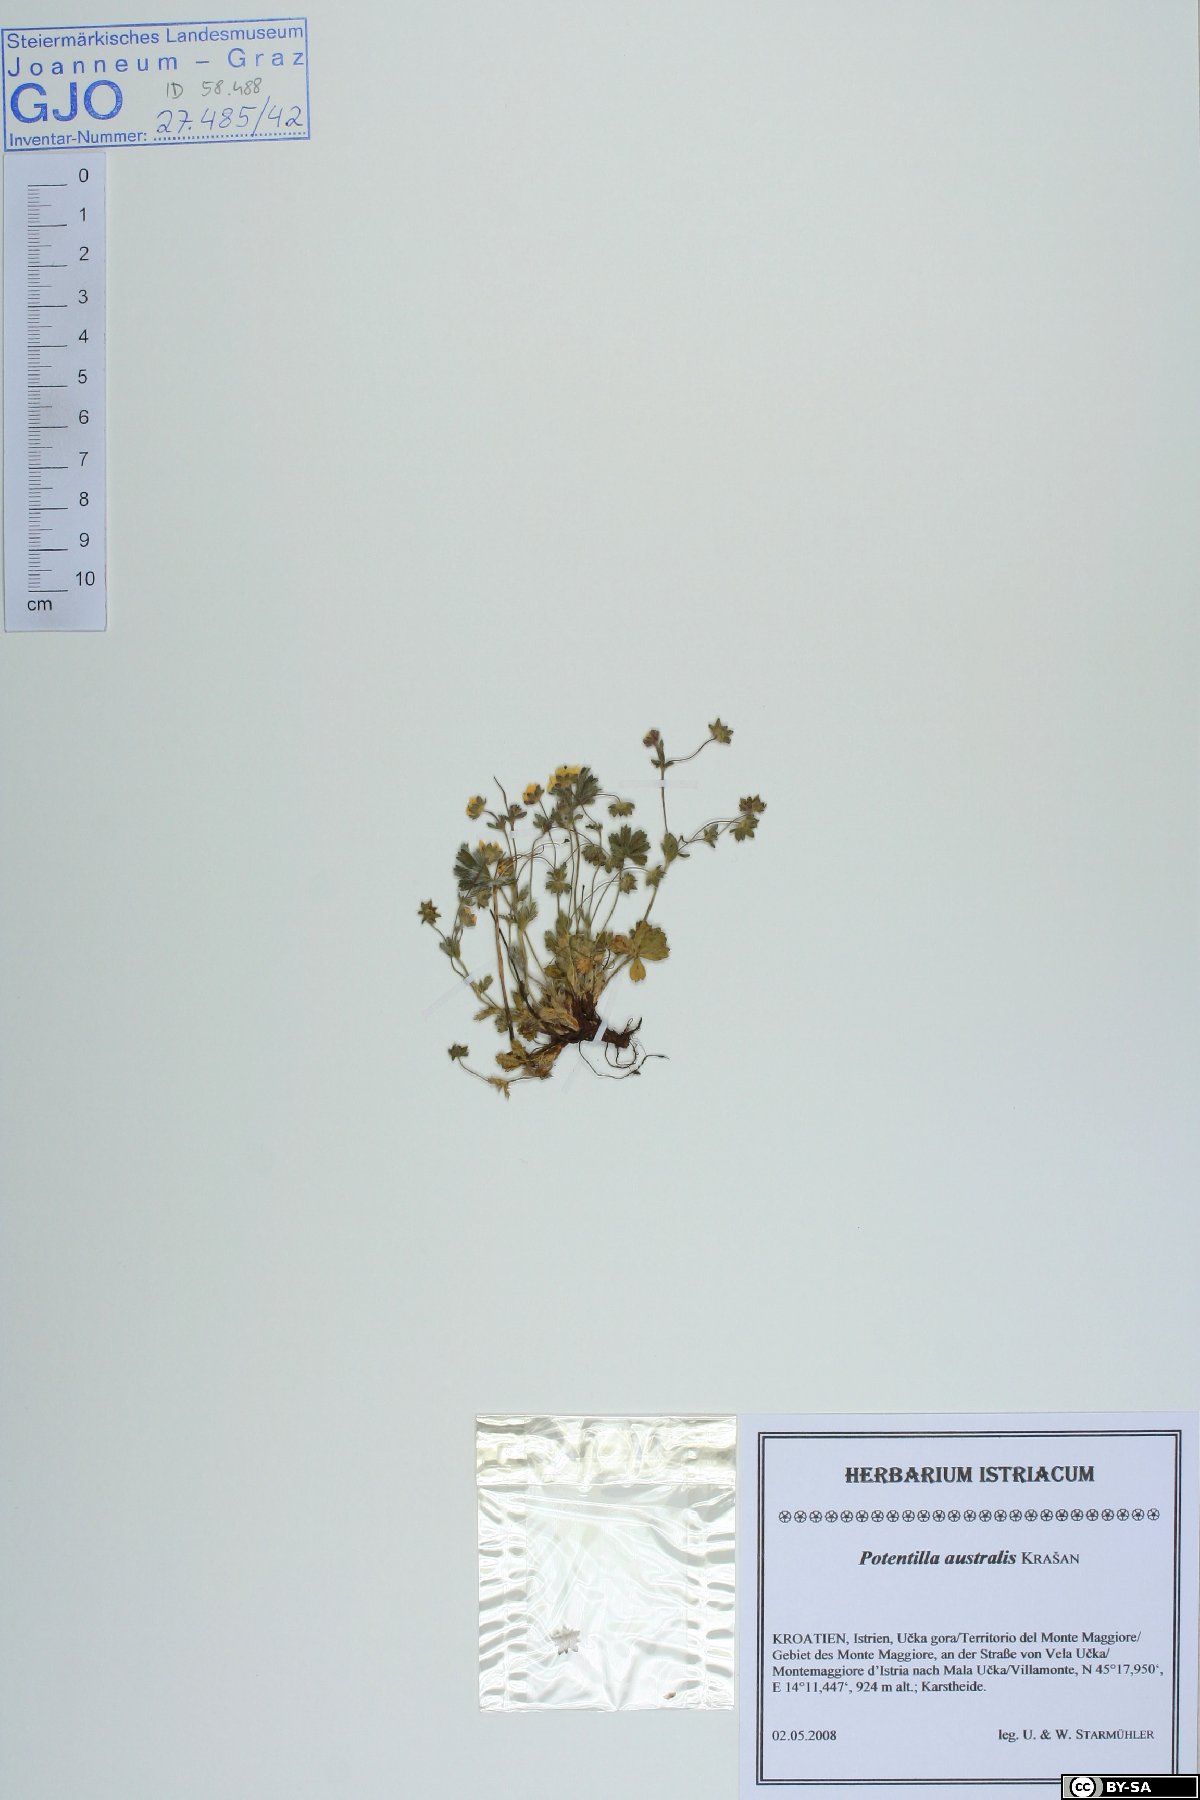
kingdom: Plantae
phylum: Tracheophyta
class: Magnoliopsida
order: Rosales
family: Rosaceae
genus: Potentilla
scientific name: Potentilla heptaphylla
